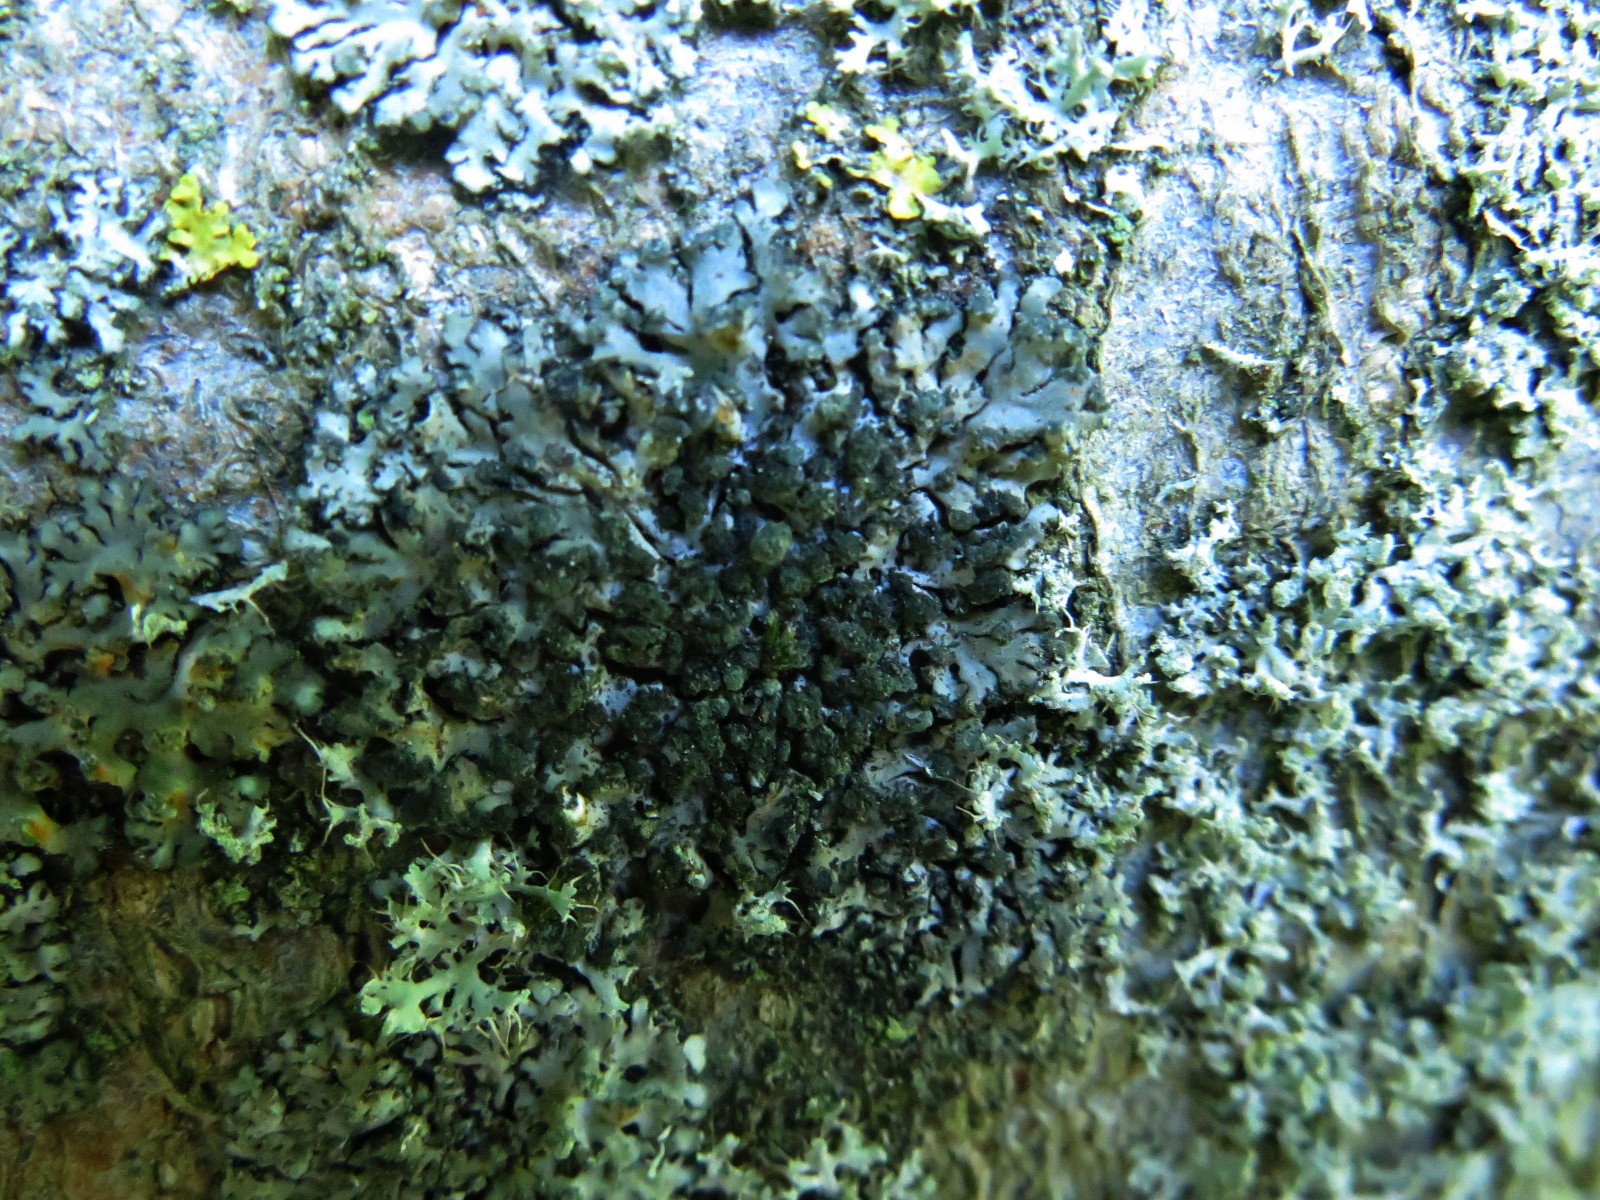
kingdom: Fungi
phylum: Ascomycota
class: Lecanoromycetes
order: Caliciales
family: Physciaceae
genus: Phaeophyscia
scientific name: Phaeophyscia orbicularis
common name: grågrøn rosetlav
